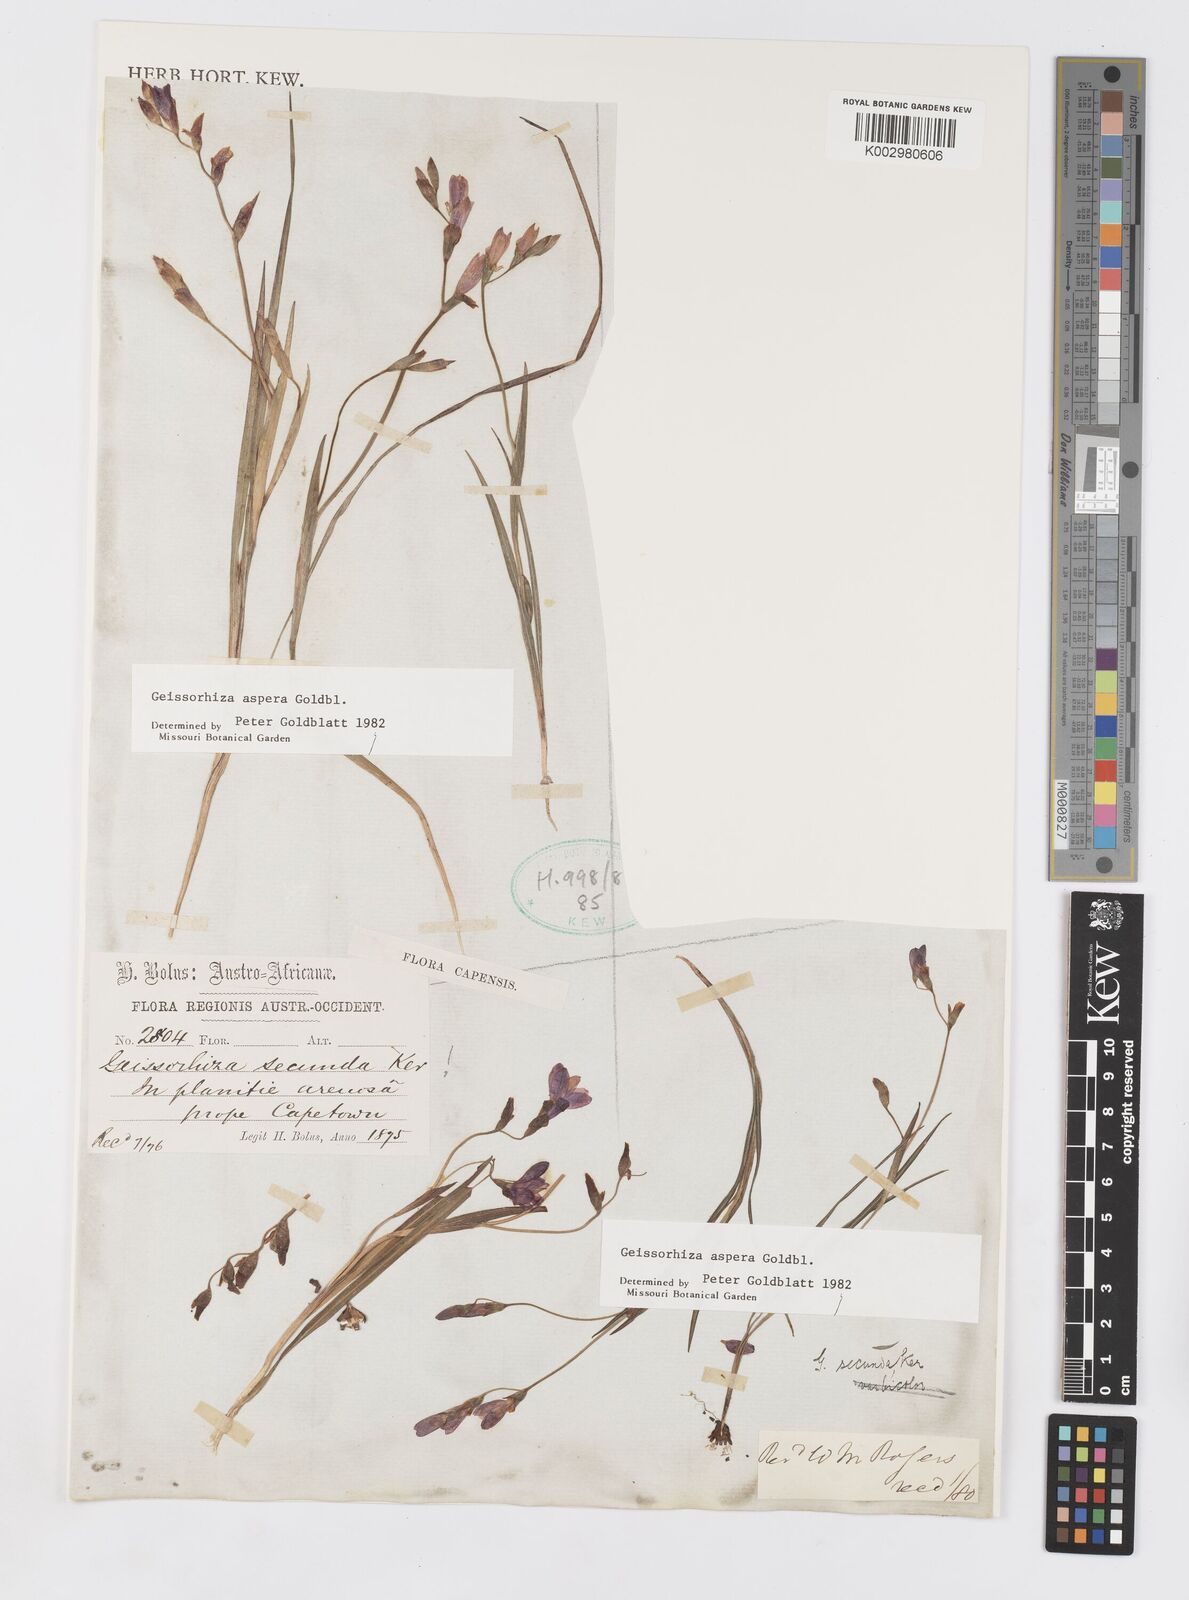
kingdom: Plantae
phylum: Tracheophyta
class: Liliopsida
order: Asparagales
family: Iridaceae
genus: Geissorhiza
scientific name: Geissorhiza aspera
